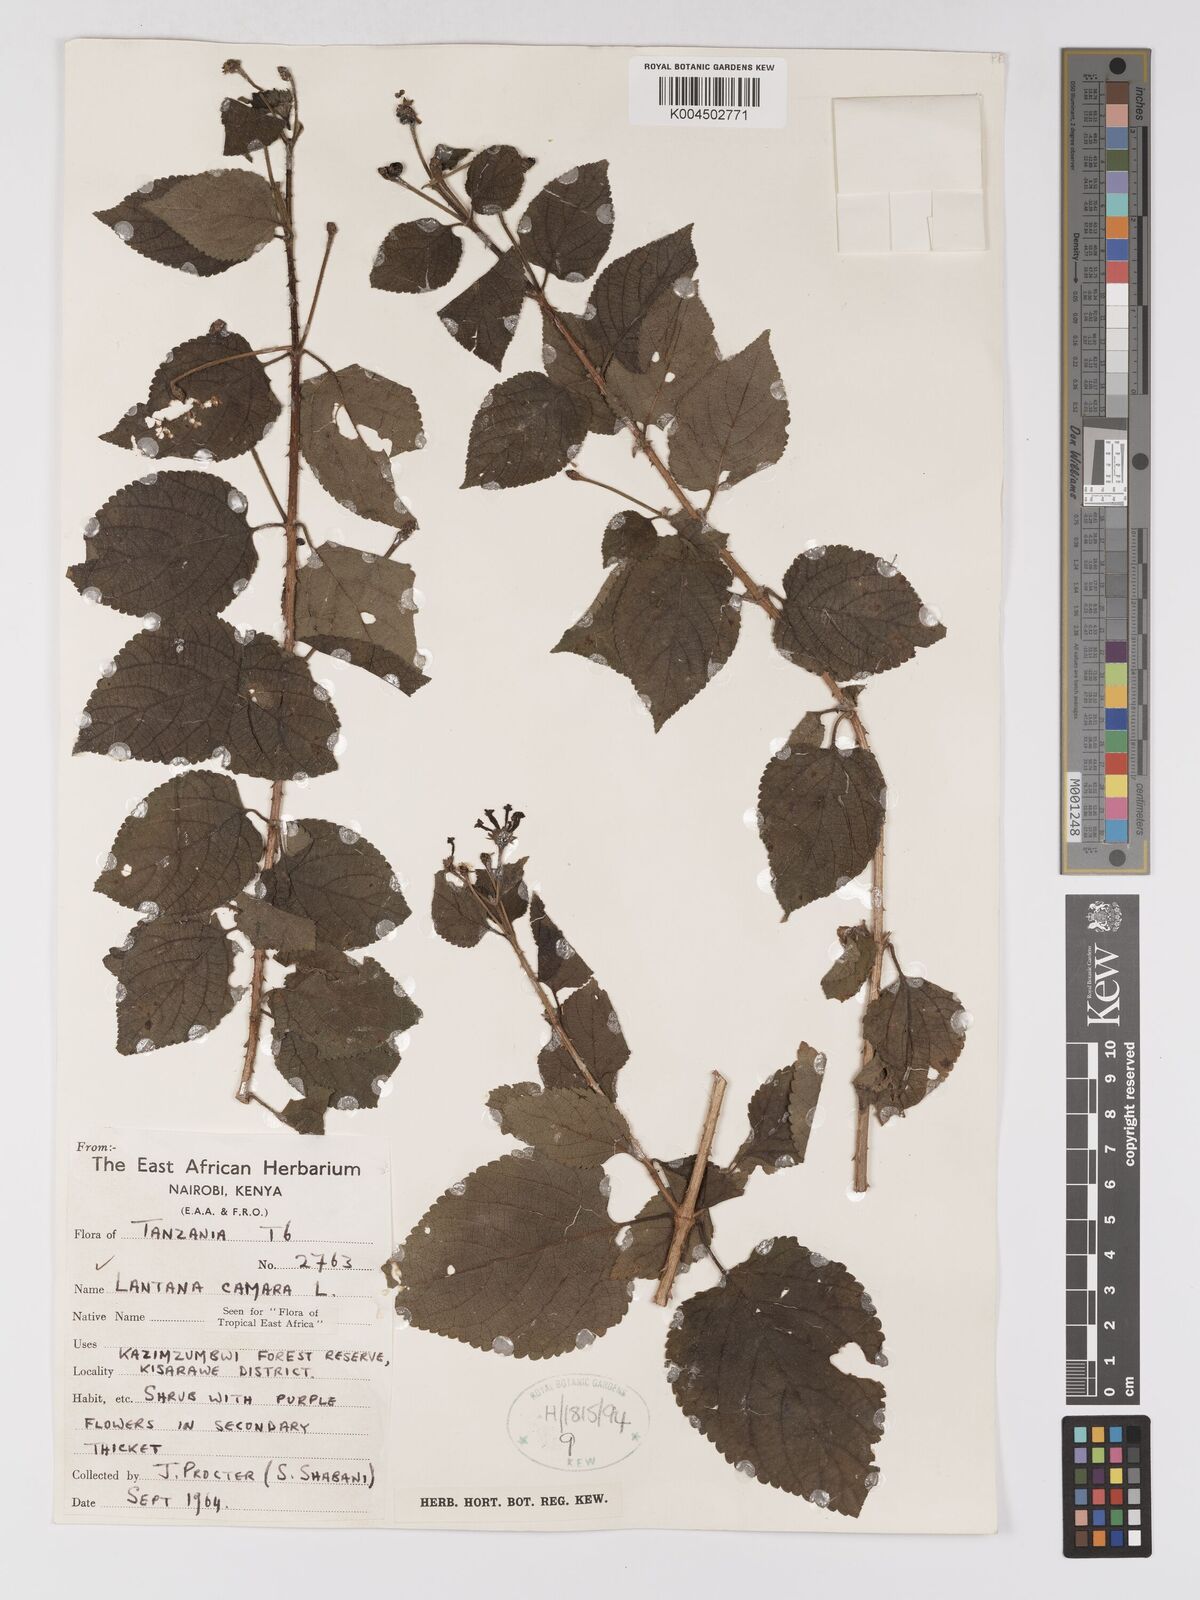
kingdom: Plantae
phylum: Tracheophyta
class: Magnoliopsida
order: Lamiales
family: Verbenaceae
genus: Lantana
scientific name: Lantana camara
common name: Lantana
